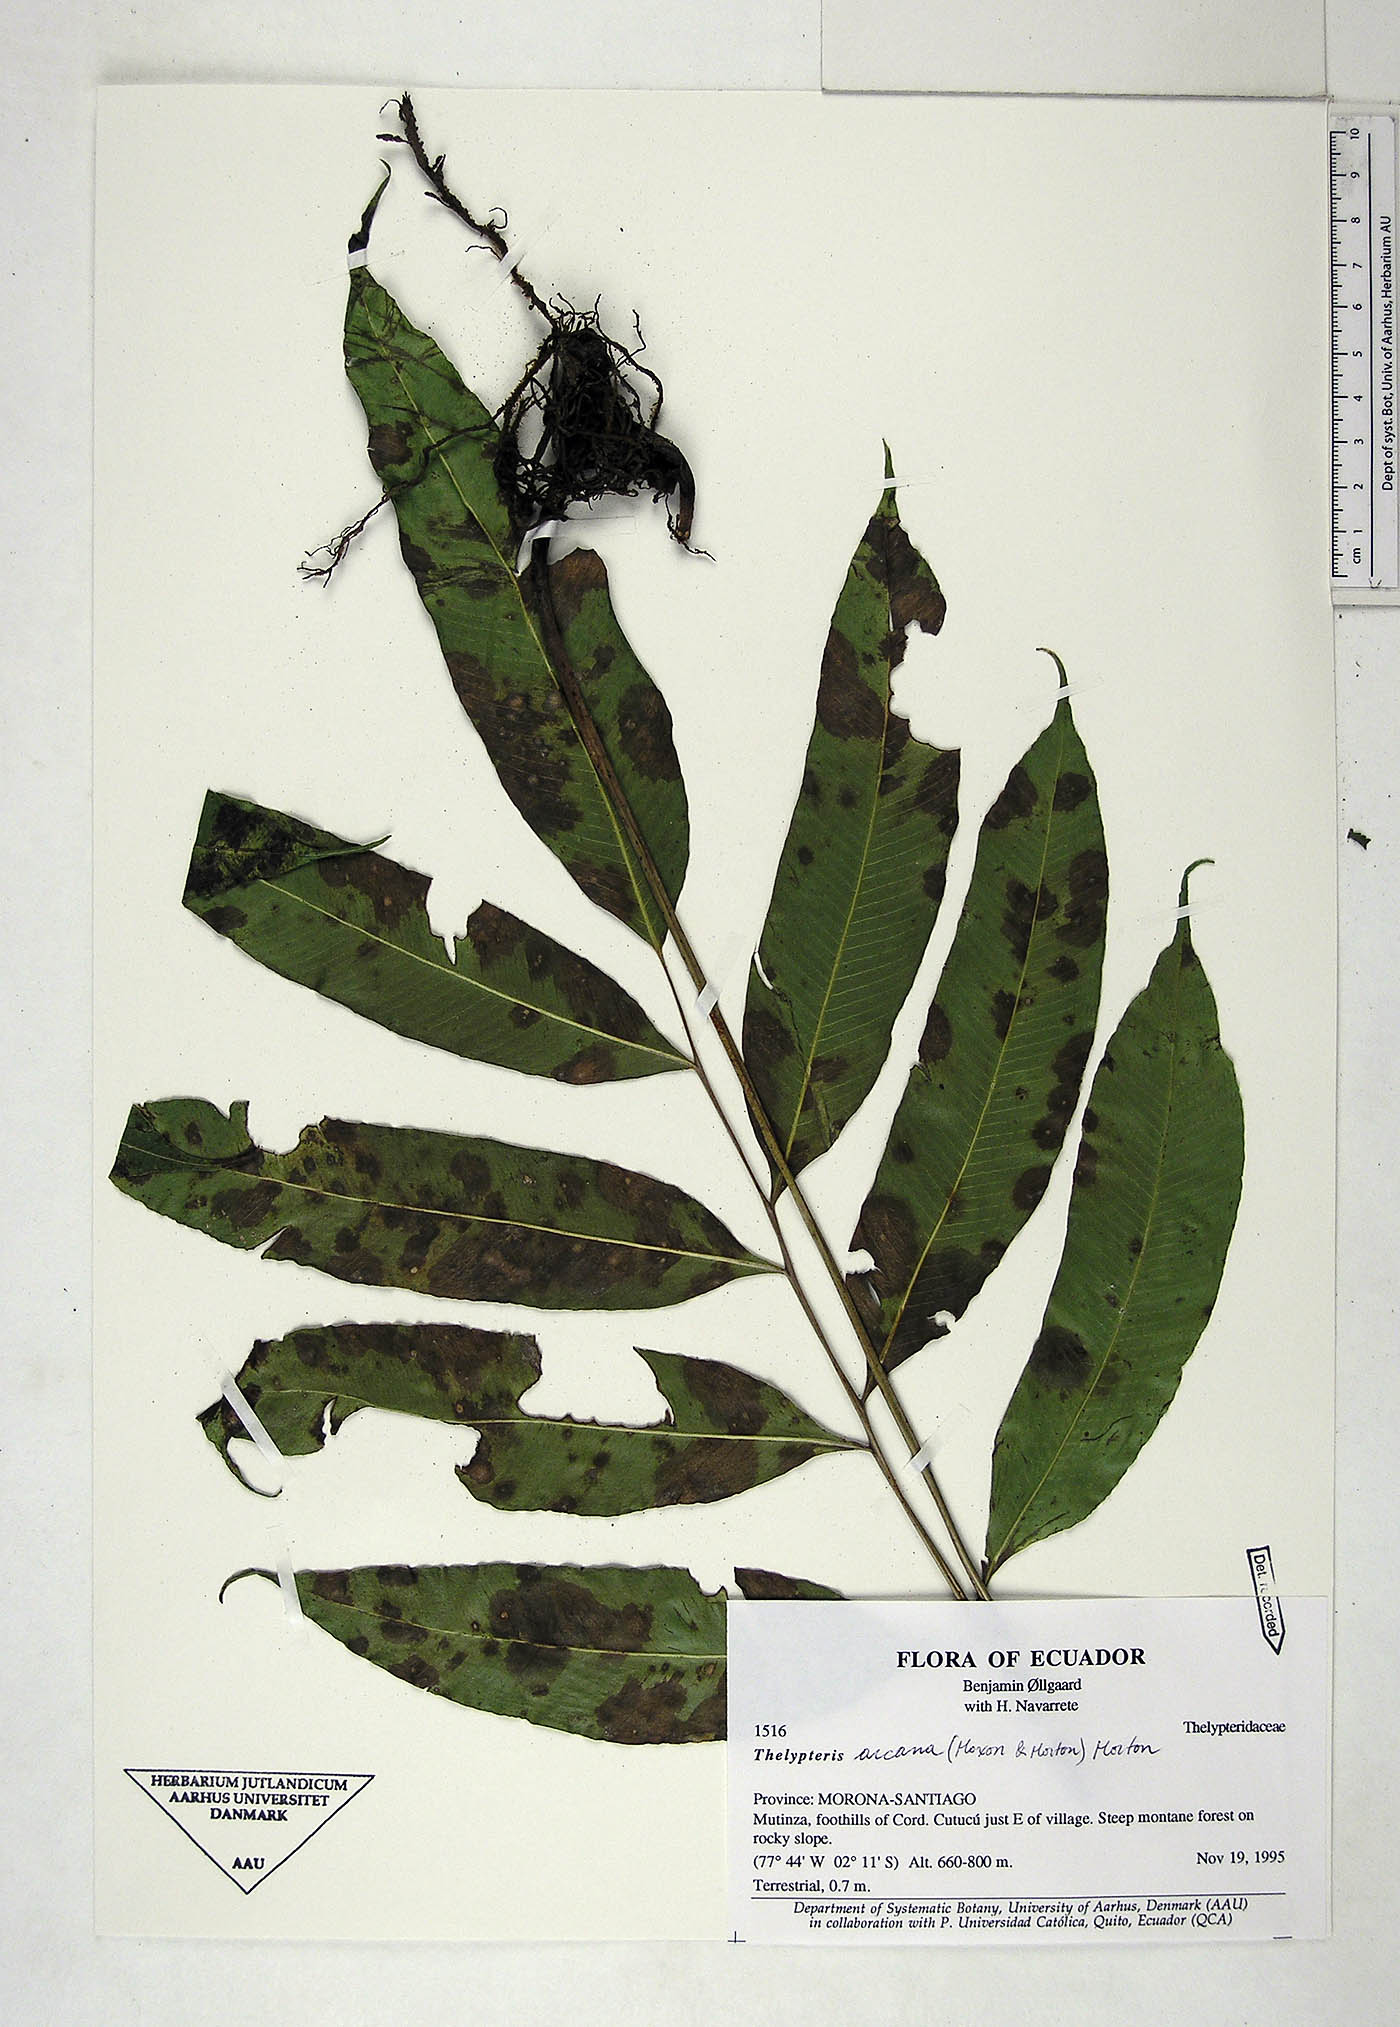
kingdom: Plantae
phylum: Tracheophyta
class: Polypodiopsida
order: Polypodiales
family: Thelypteridaceae
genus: Meniscium
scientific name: Meniscium arcanum
